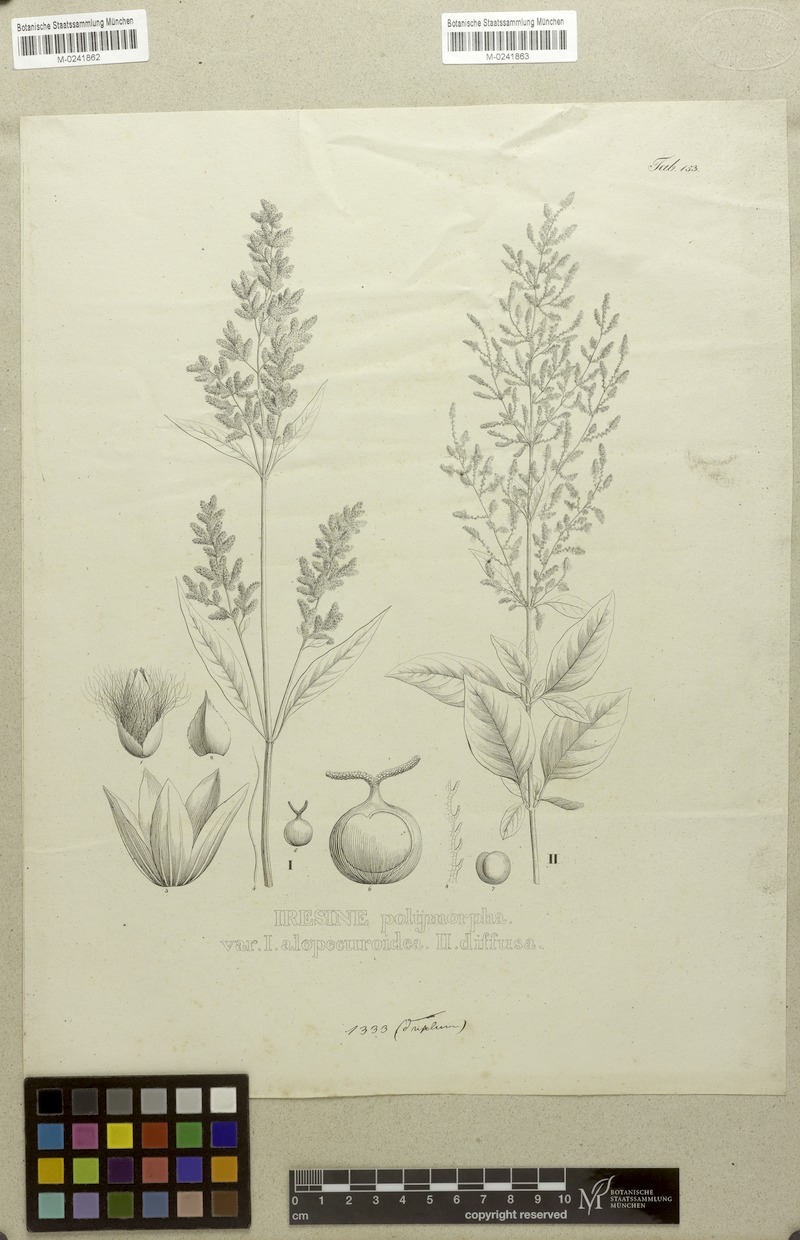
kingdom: Plantae
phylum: Tracheophyta
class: Magnoliopsida
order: Caryophyllales
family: Amaranthaceae
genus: Iresine
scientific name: Iresine diffusa
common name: Juba's-bush
